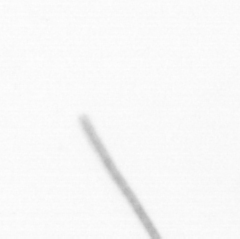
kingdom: Chromista
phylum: Ochrophyta
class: Bacillariophyceae
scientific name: Bacillariophyceae
